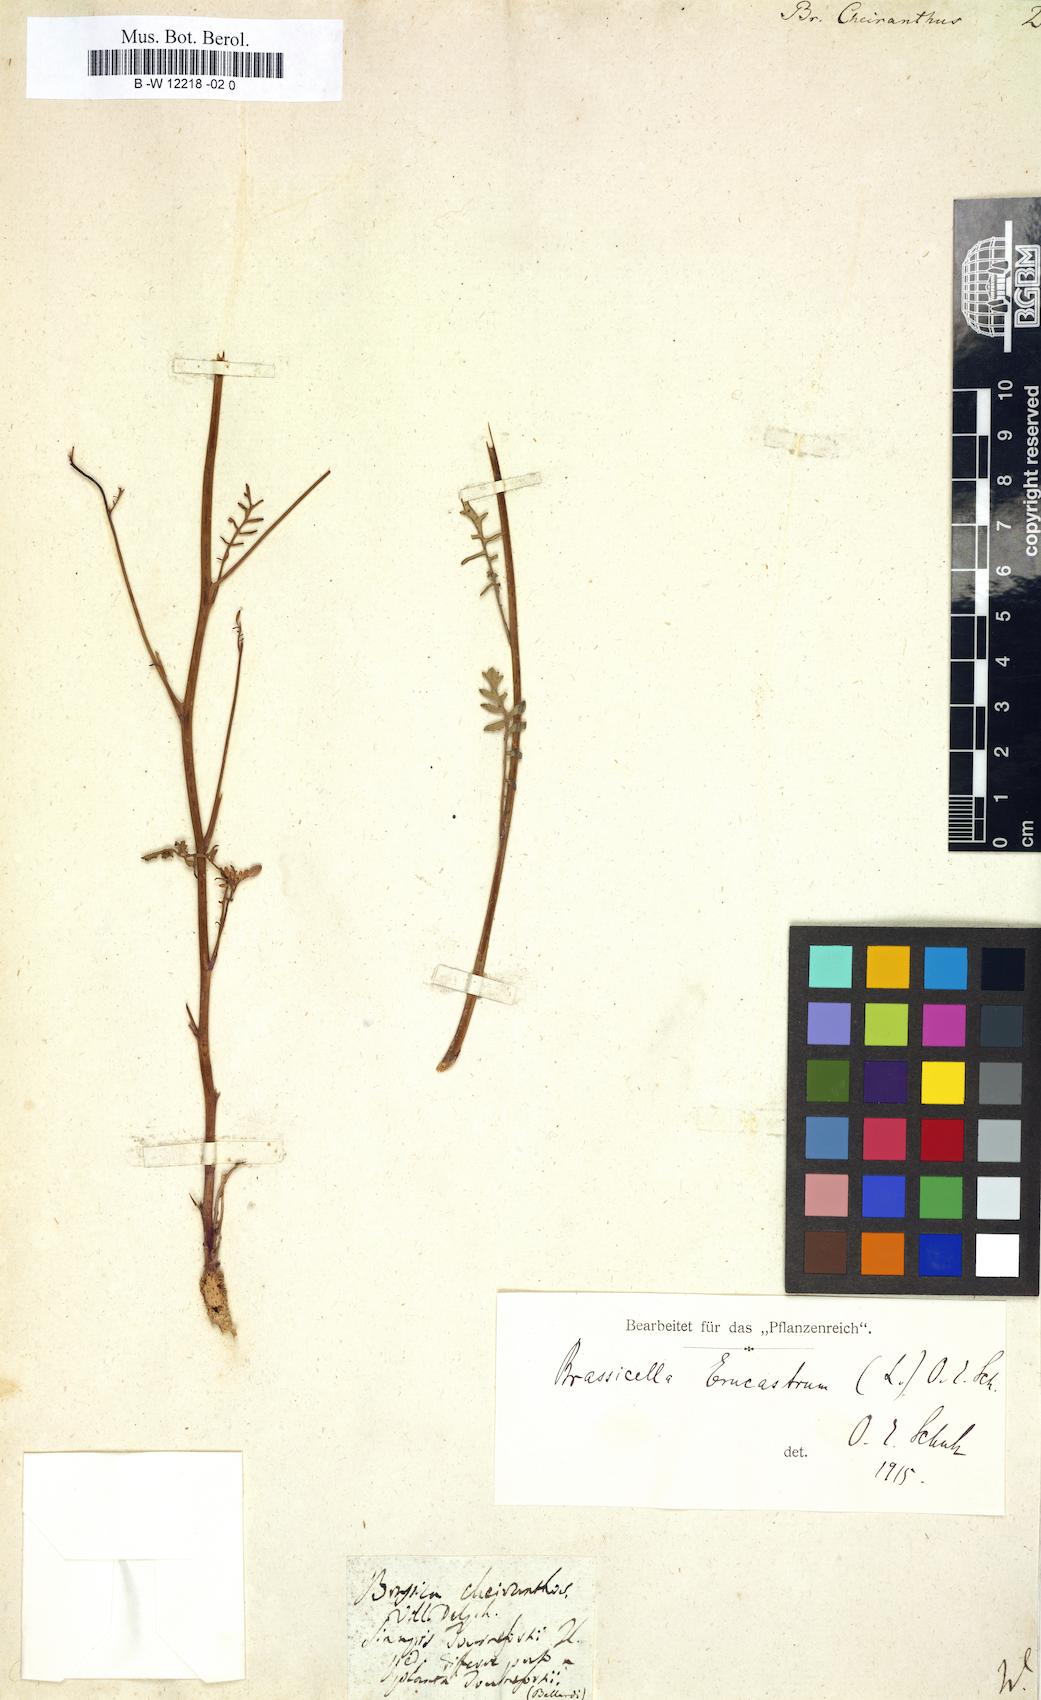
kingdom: Plantae
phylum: Tracheophyta
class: Magnoliopsida
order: Brassicales
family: Brassicaceae
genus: Coincya
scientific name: Coincya monensis
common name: Star-mustard
